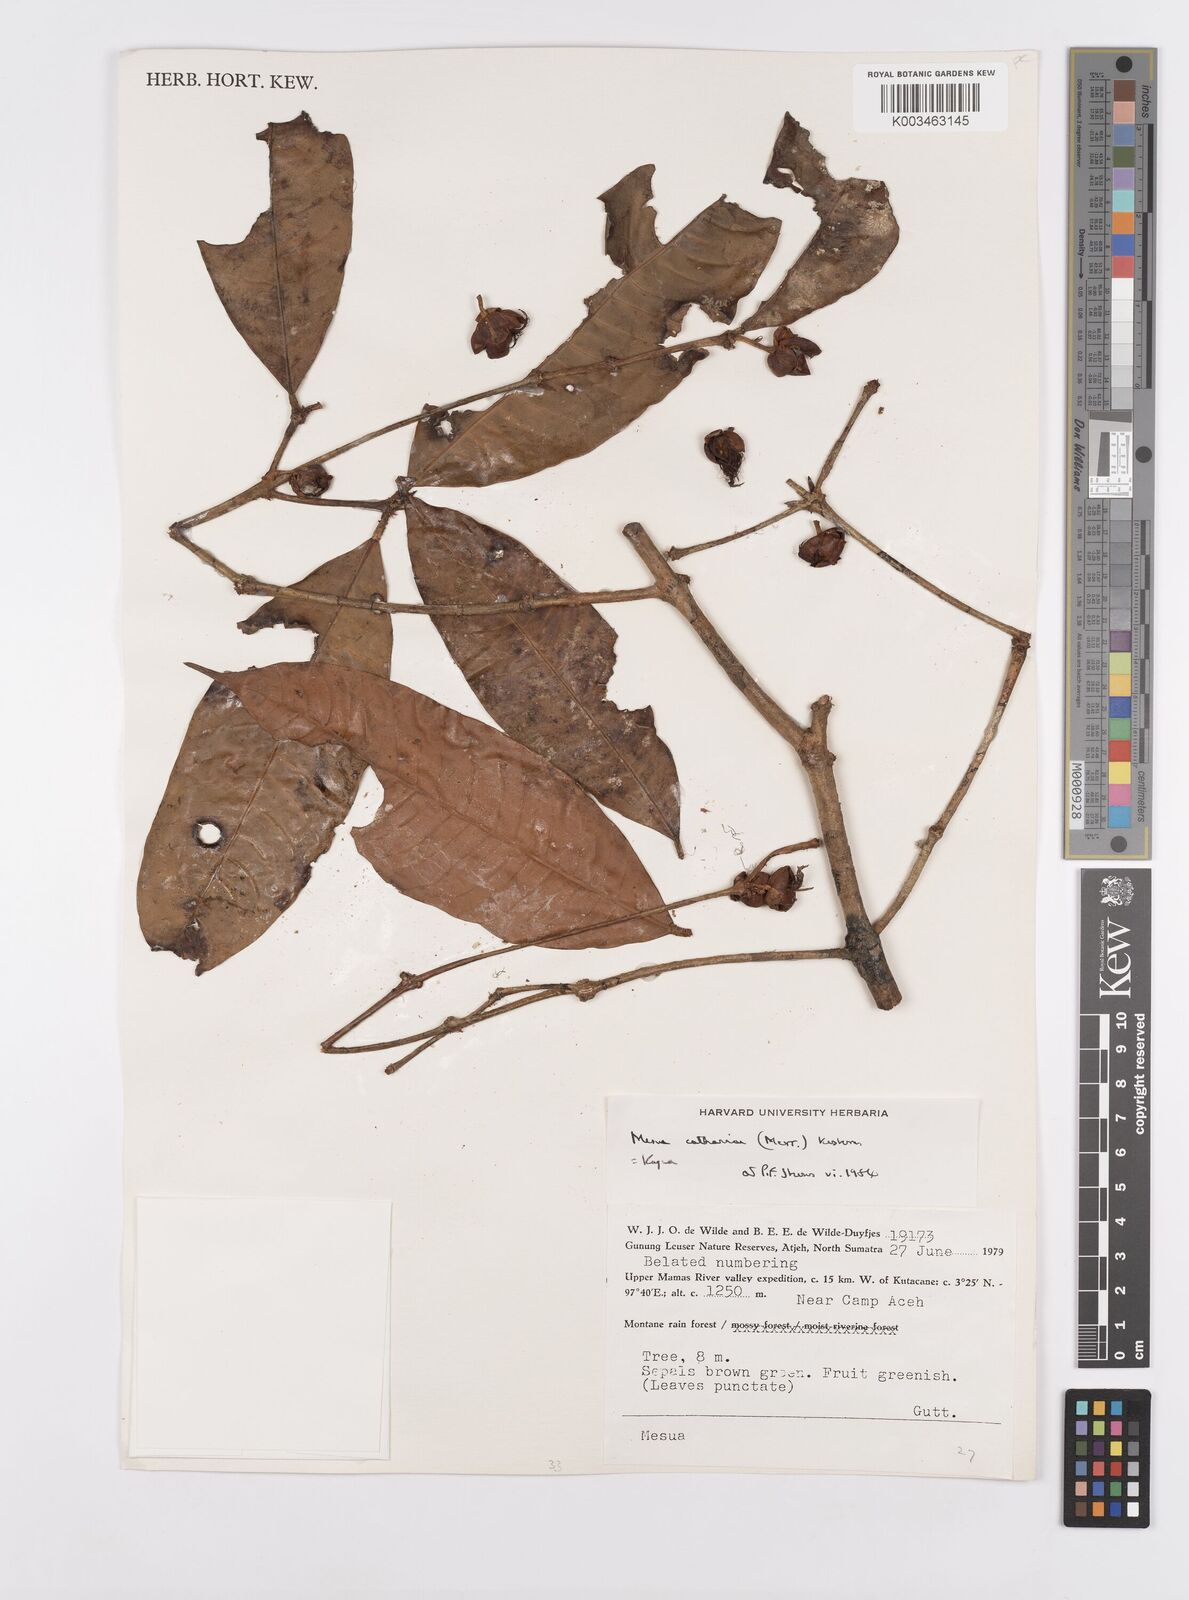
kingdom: Plantae
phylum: Tracheophyta
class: Magnoliopsida
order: Malpighiales
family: Calophyllaceae
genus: Kayea
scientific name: Kayea catharinae
